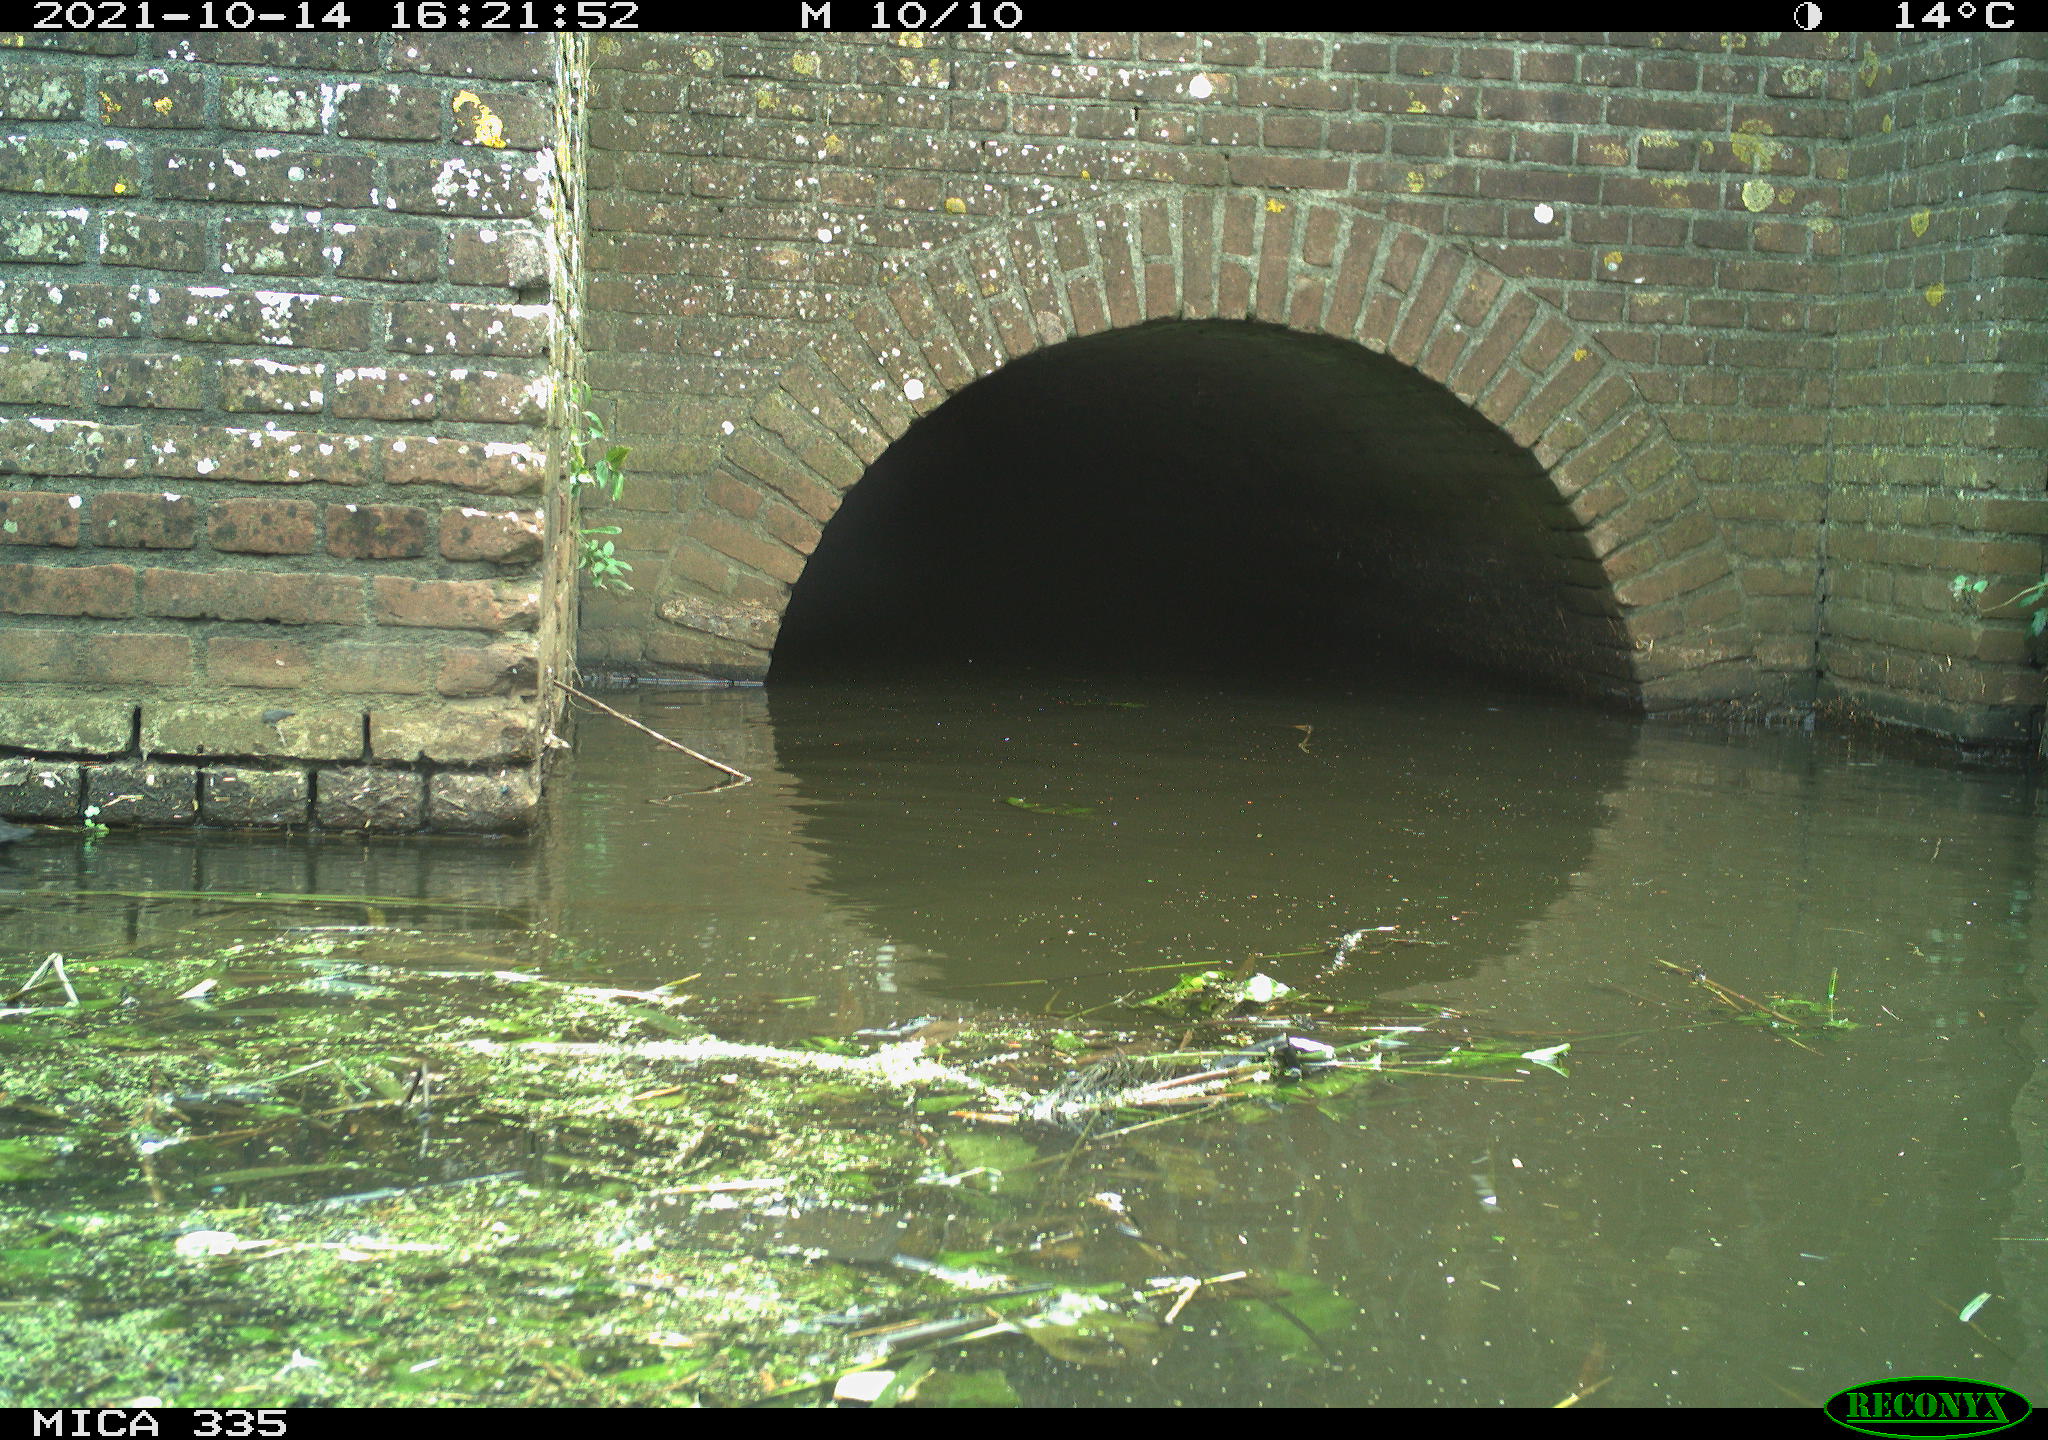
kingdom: Animalia
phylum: Chordata
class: Aves
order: Gruiformes
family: Rallidae
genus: Fulica
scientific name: Fulica atra
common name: Eurasian coot
